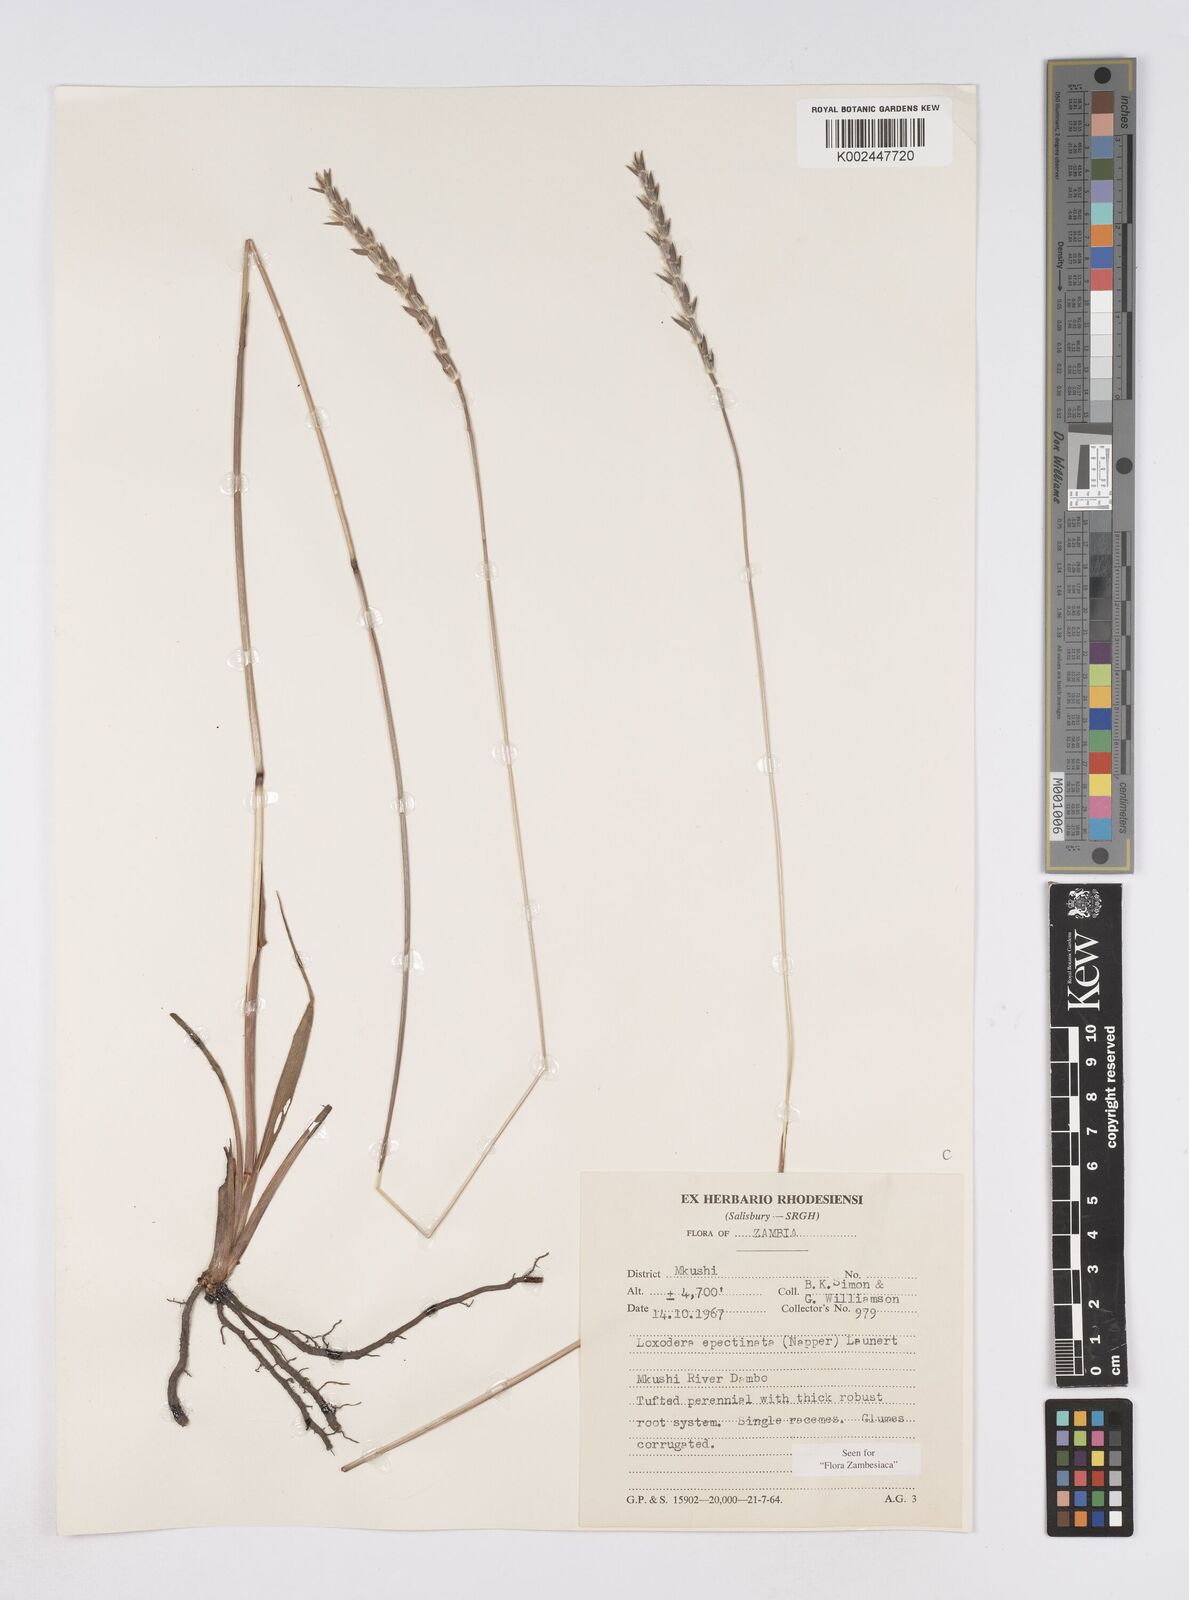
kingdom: Plantae
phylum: Tracheophyta
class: Liliopsida
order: Poales
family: Poaceae
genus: Loxodera
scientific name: Loxodera caespitosa
